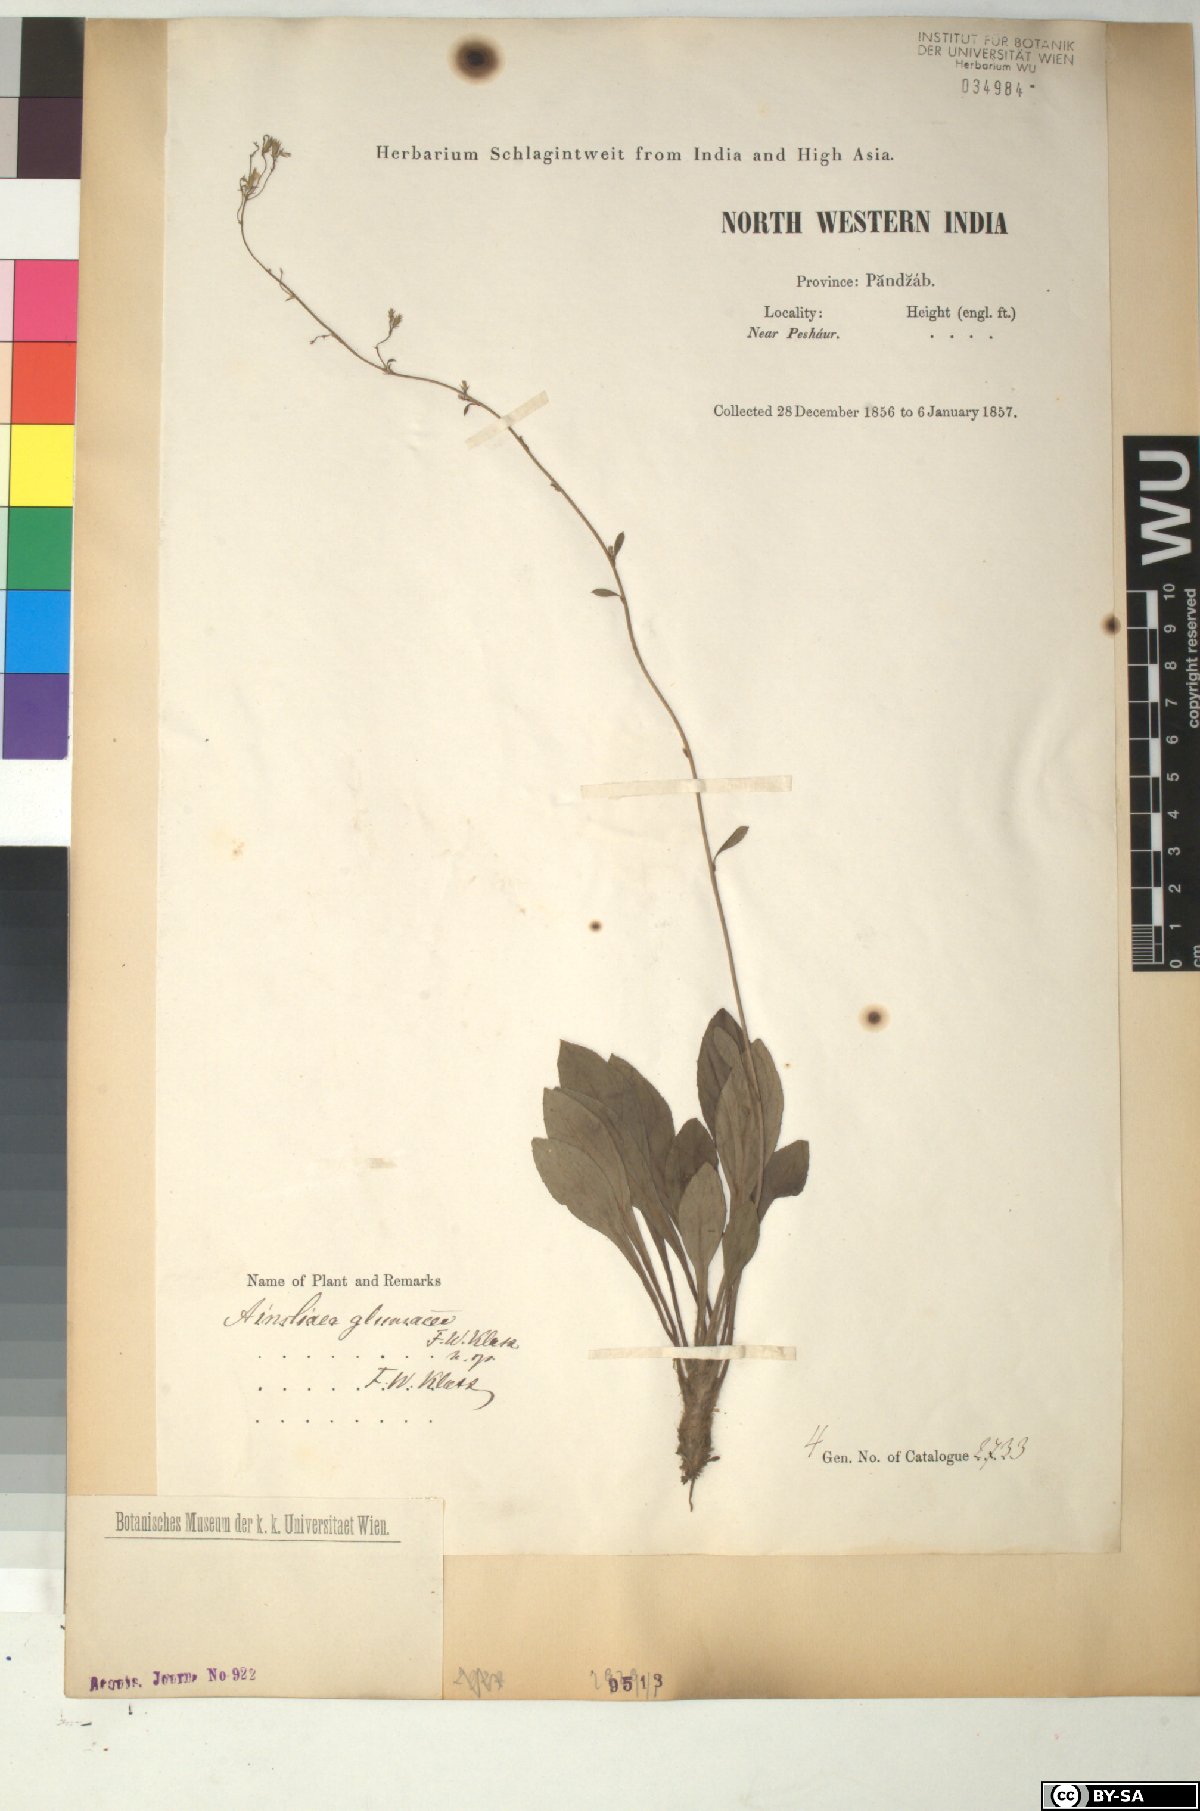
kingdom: Plantae
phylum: Tracheophyta
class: Magnoliopsida
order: Asterales
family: Asteraceae
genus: Ainsliaea
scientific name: Ainsliaea angustifolia
